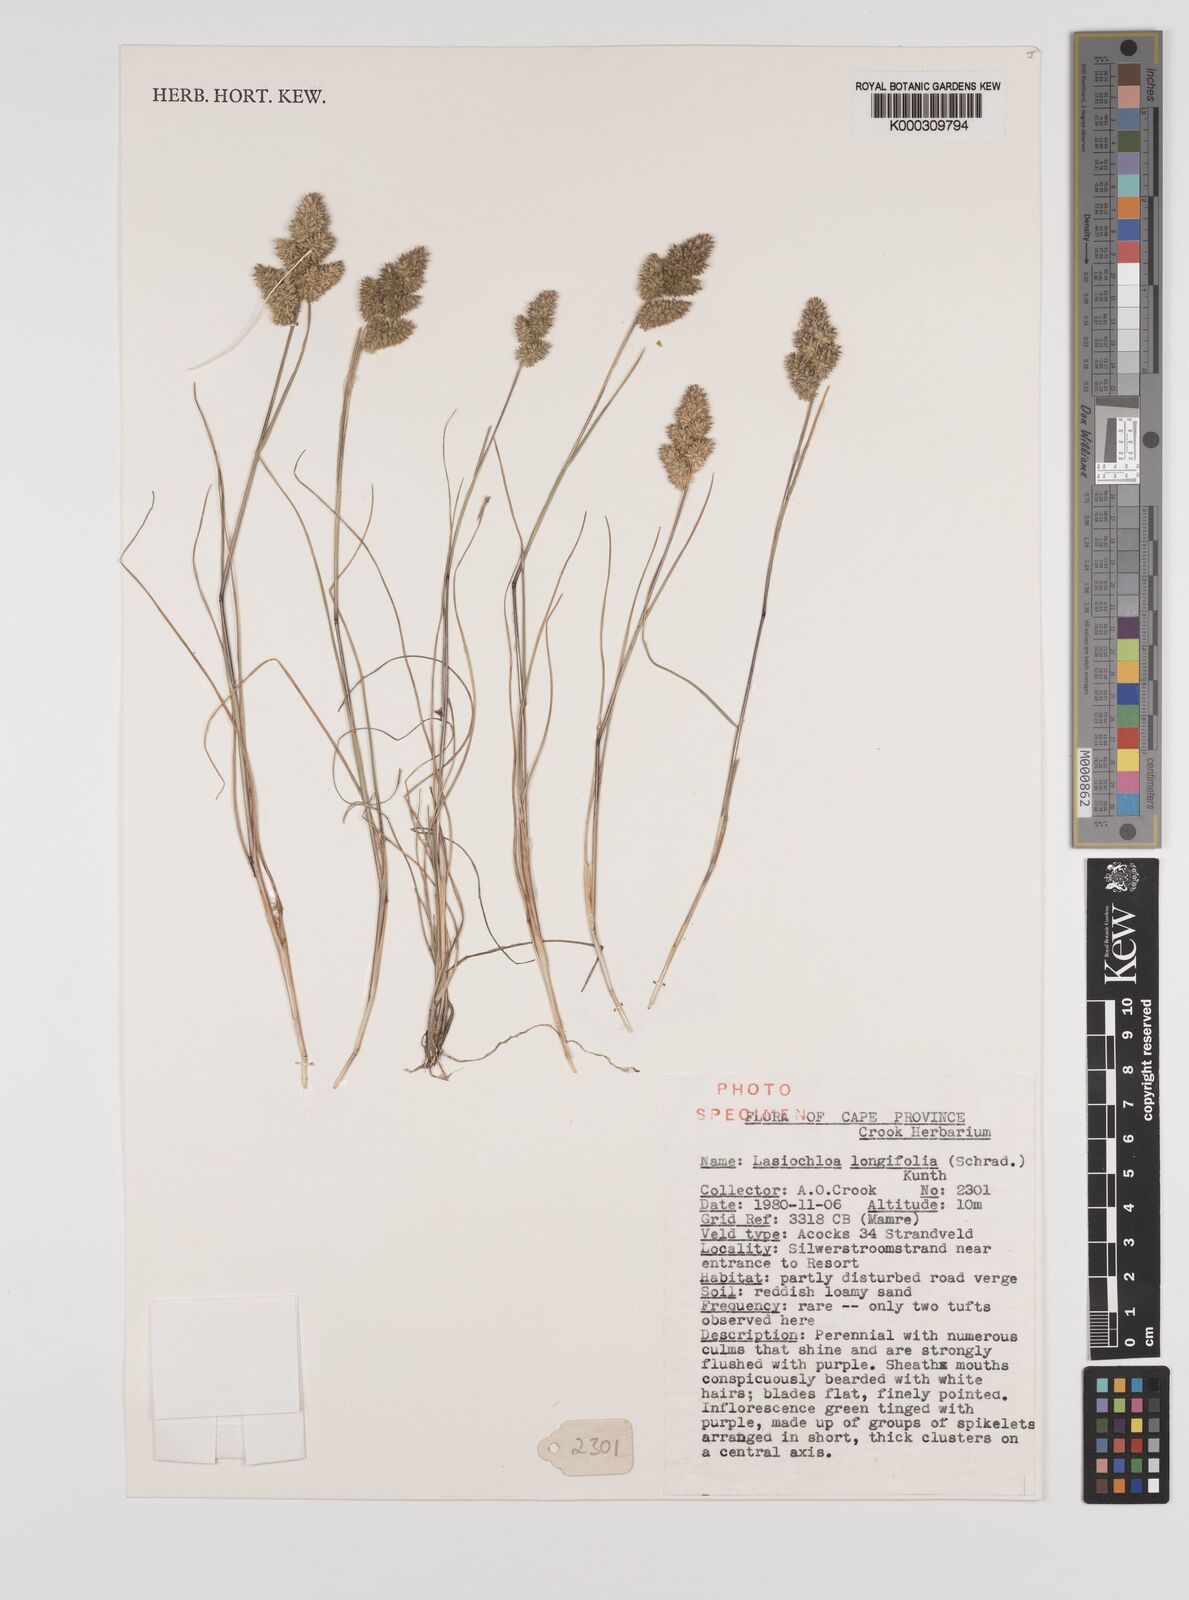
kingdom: Plantae
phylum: Tracheophyta
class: Liliopsida
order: Poales
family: Poaceae
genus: Tribolium
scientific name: Tribolium hispidum
